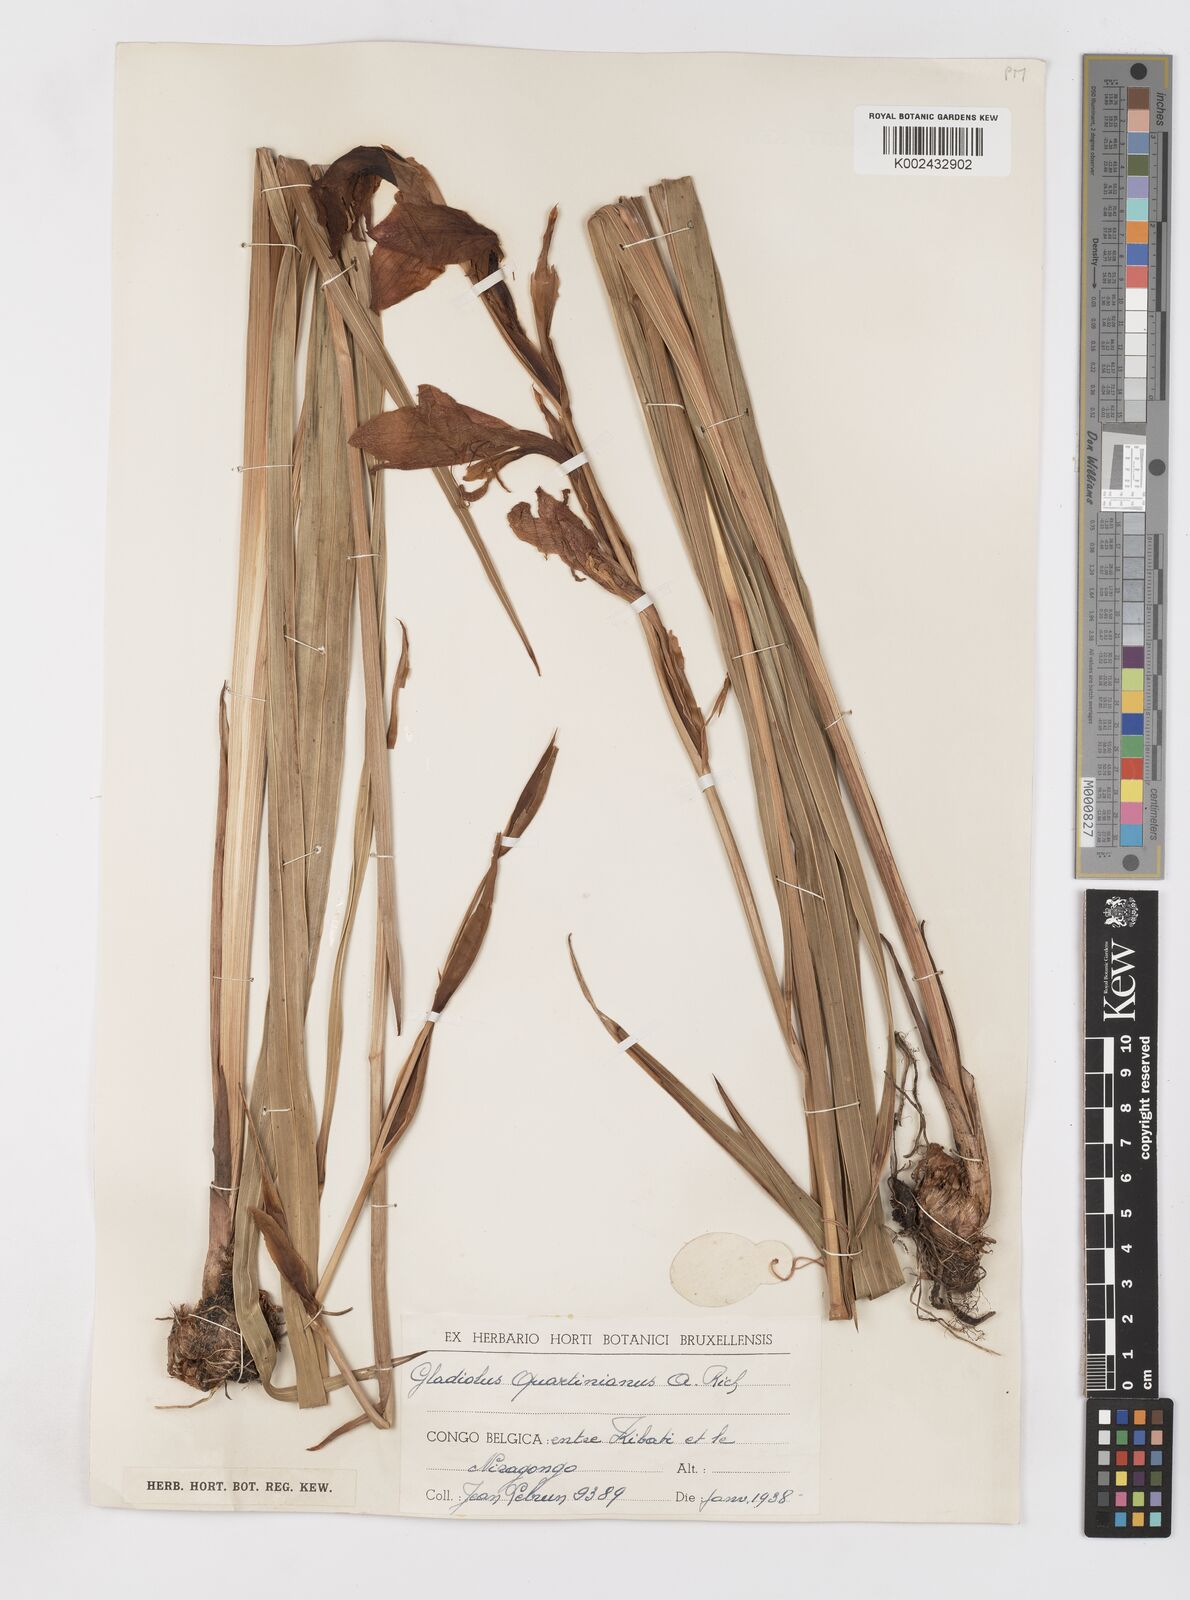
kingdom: Plantae
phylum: Tracheophyta
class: Liliopsida
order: Asparagales
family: Iridaceae
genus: Gladiolus
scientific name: Gladiolus dalenii
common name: Cornflag
